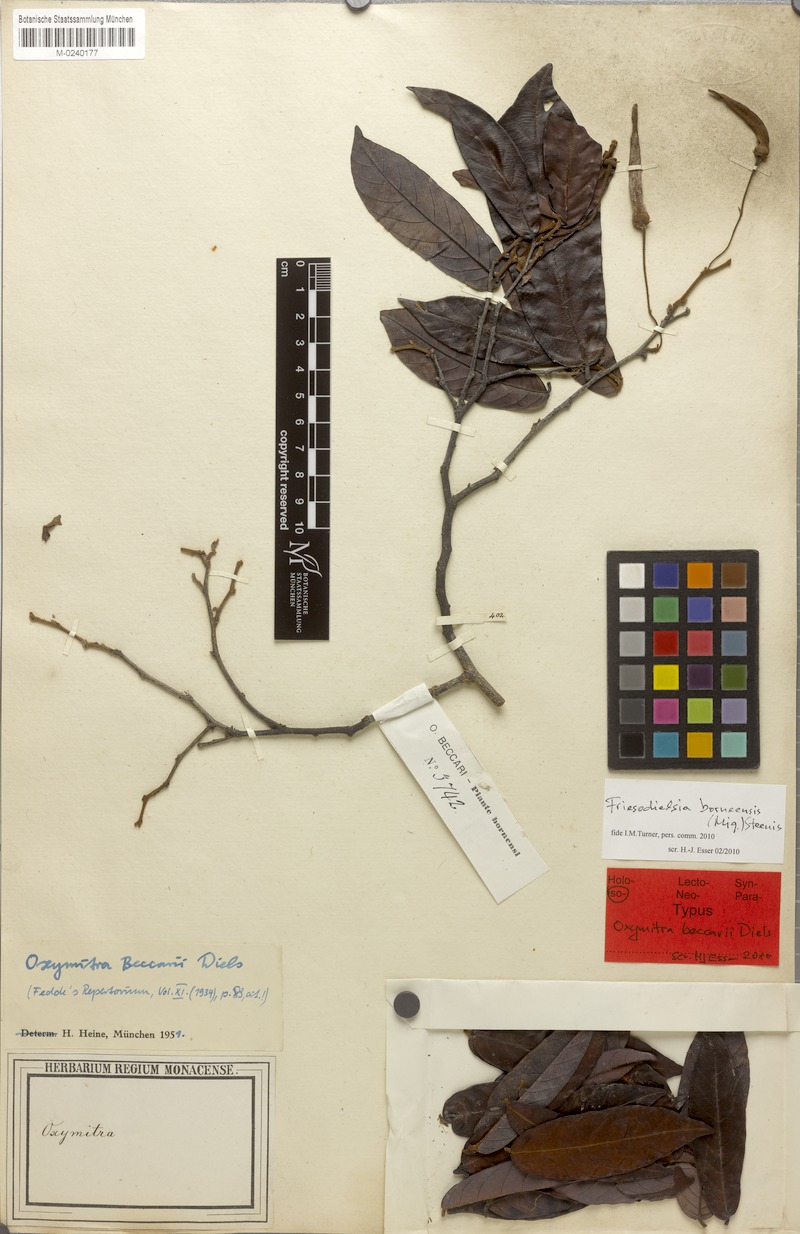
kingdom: Plantae
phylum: Tracheophyta
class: Magnoliopsida
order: Magnoliales
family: Annonaceae
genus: Friesodielsia
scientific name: Friesodielsia borneensis
